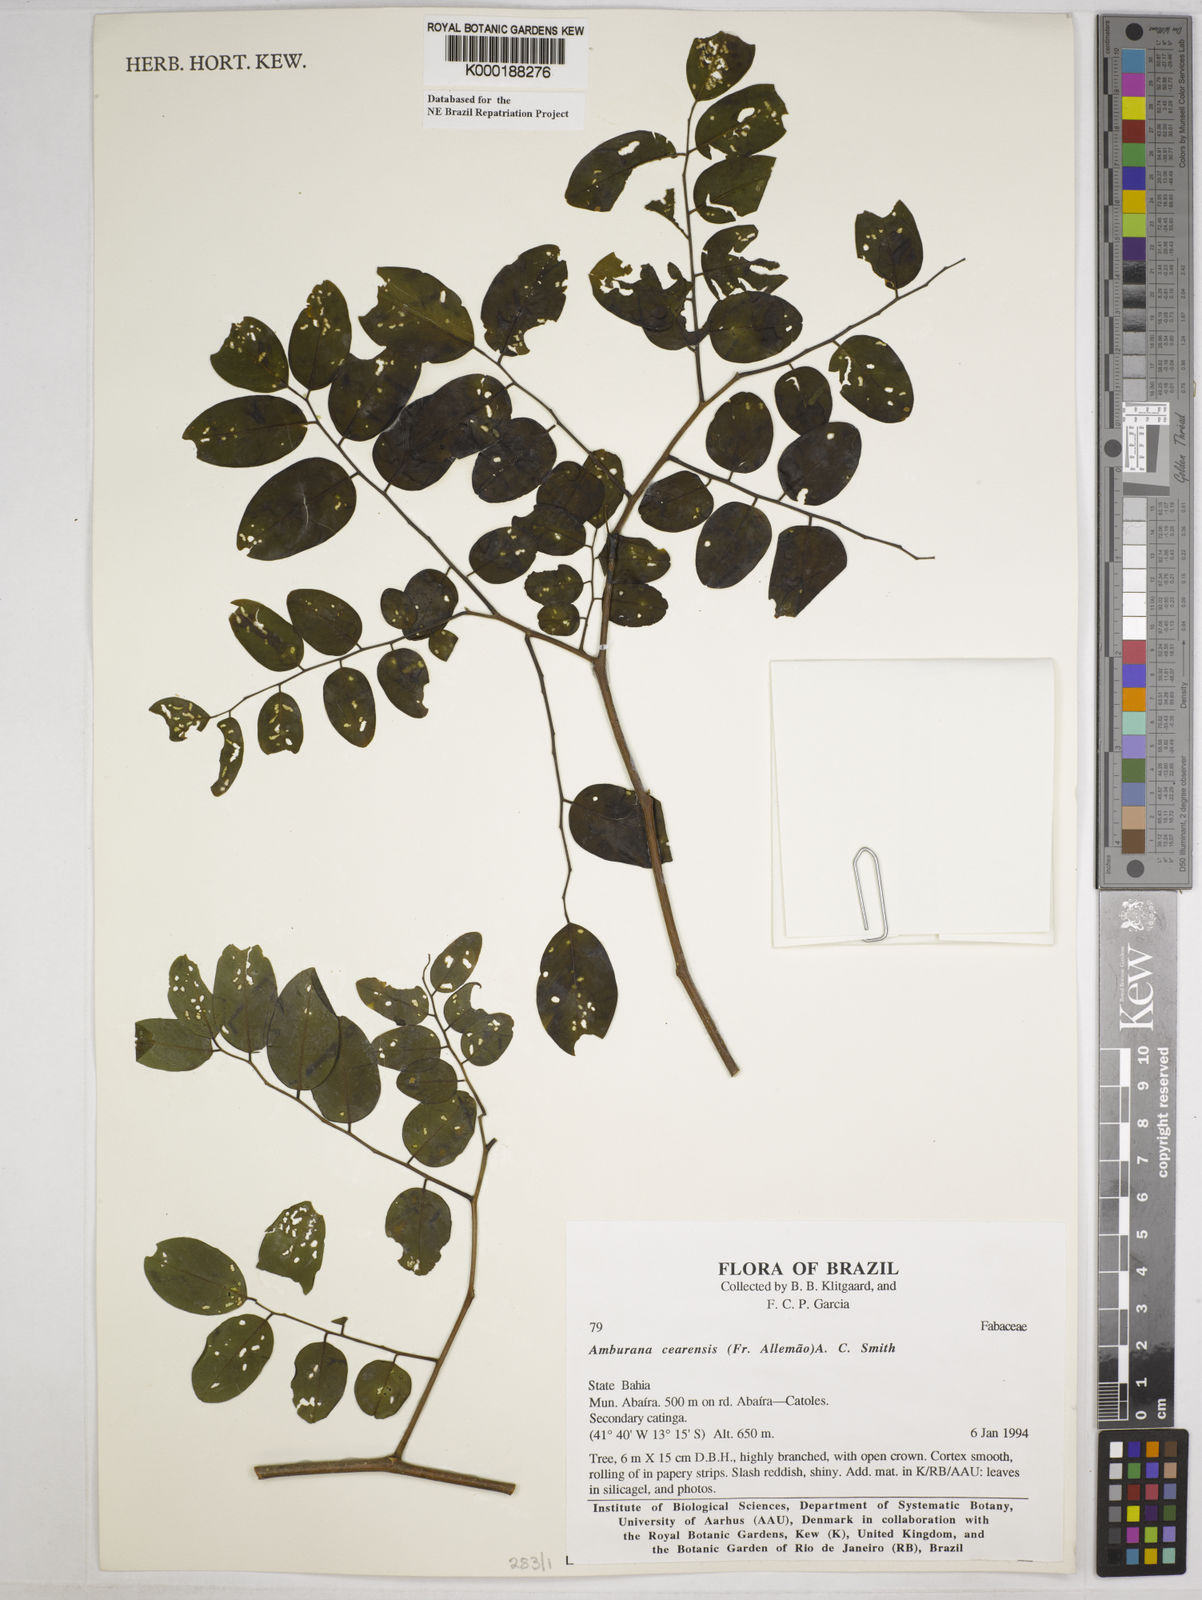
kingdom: Plantae
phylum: Tracheophyta
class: Magnoliopsida
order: Fabales
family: Fabaceae
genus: Amburana
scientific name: Amburana
